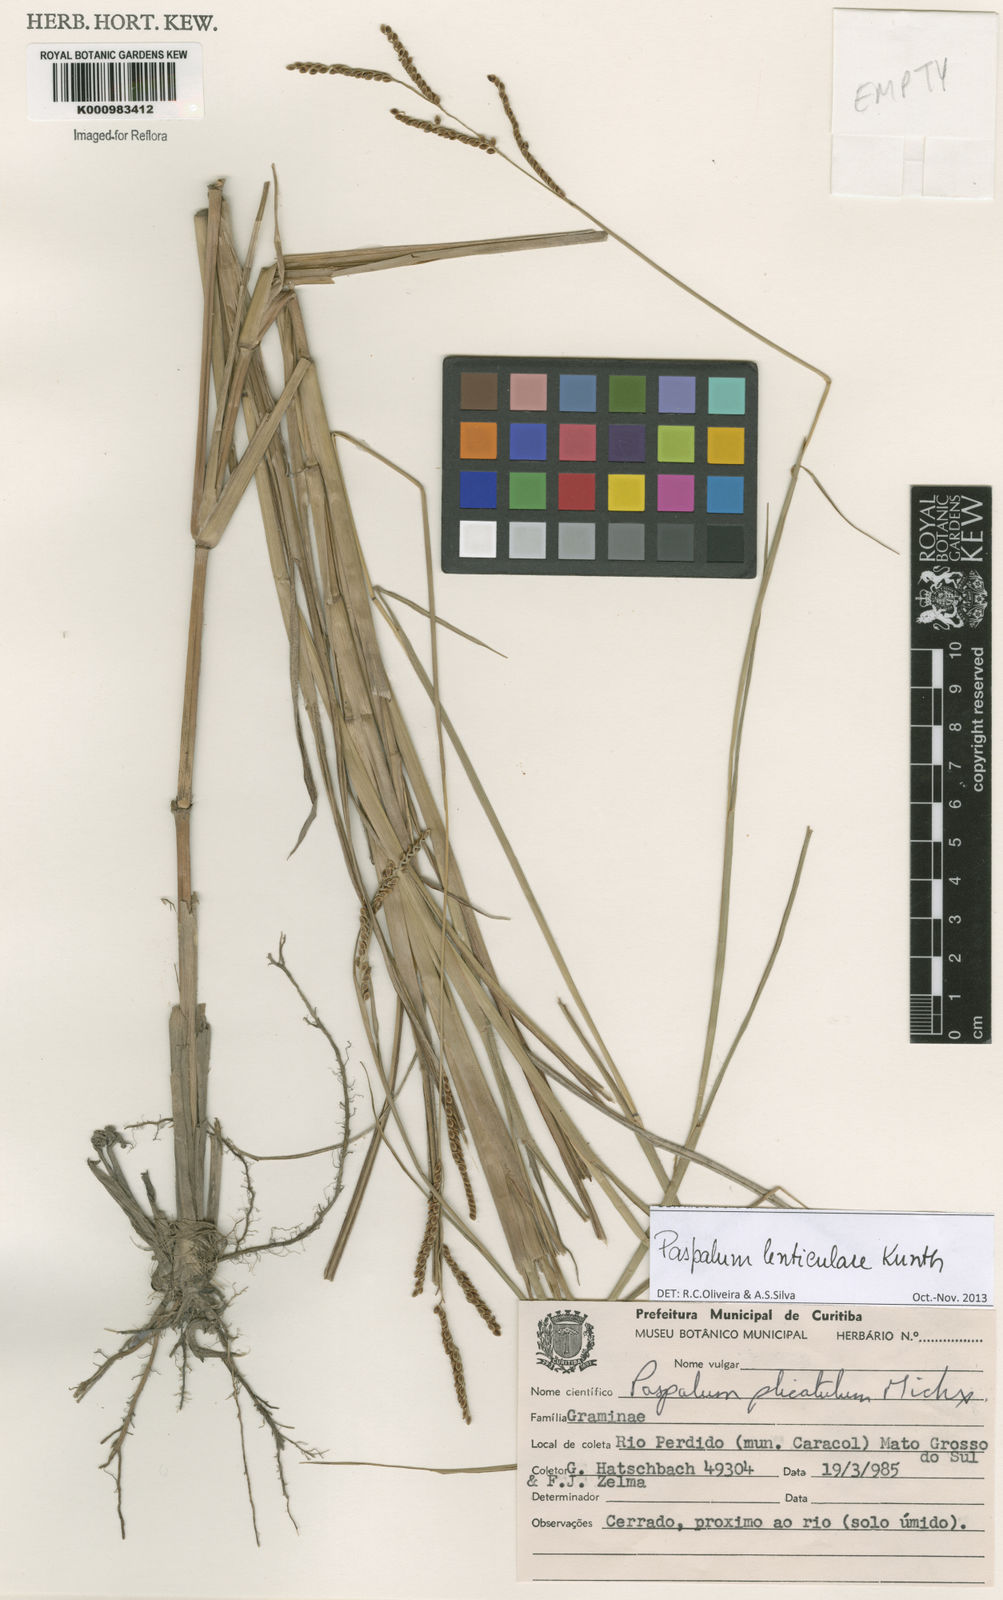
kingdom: Plantae
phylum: Tracheophyta
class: Liliopsida
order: Poales
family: Poaceae
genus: Paspalum
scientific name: Paspalum plicatulum
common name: Top paspalum
